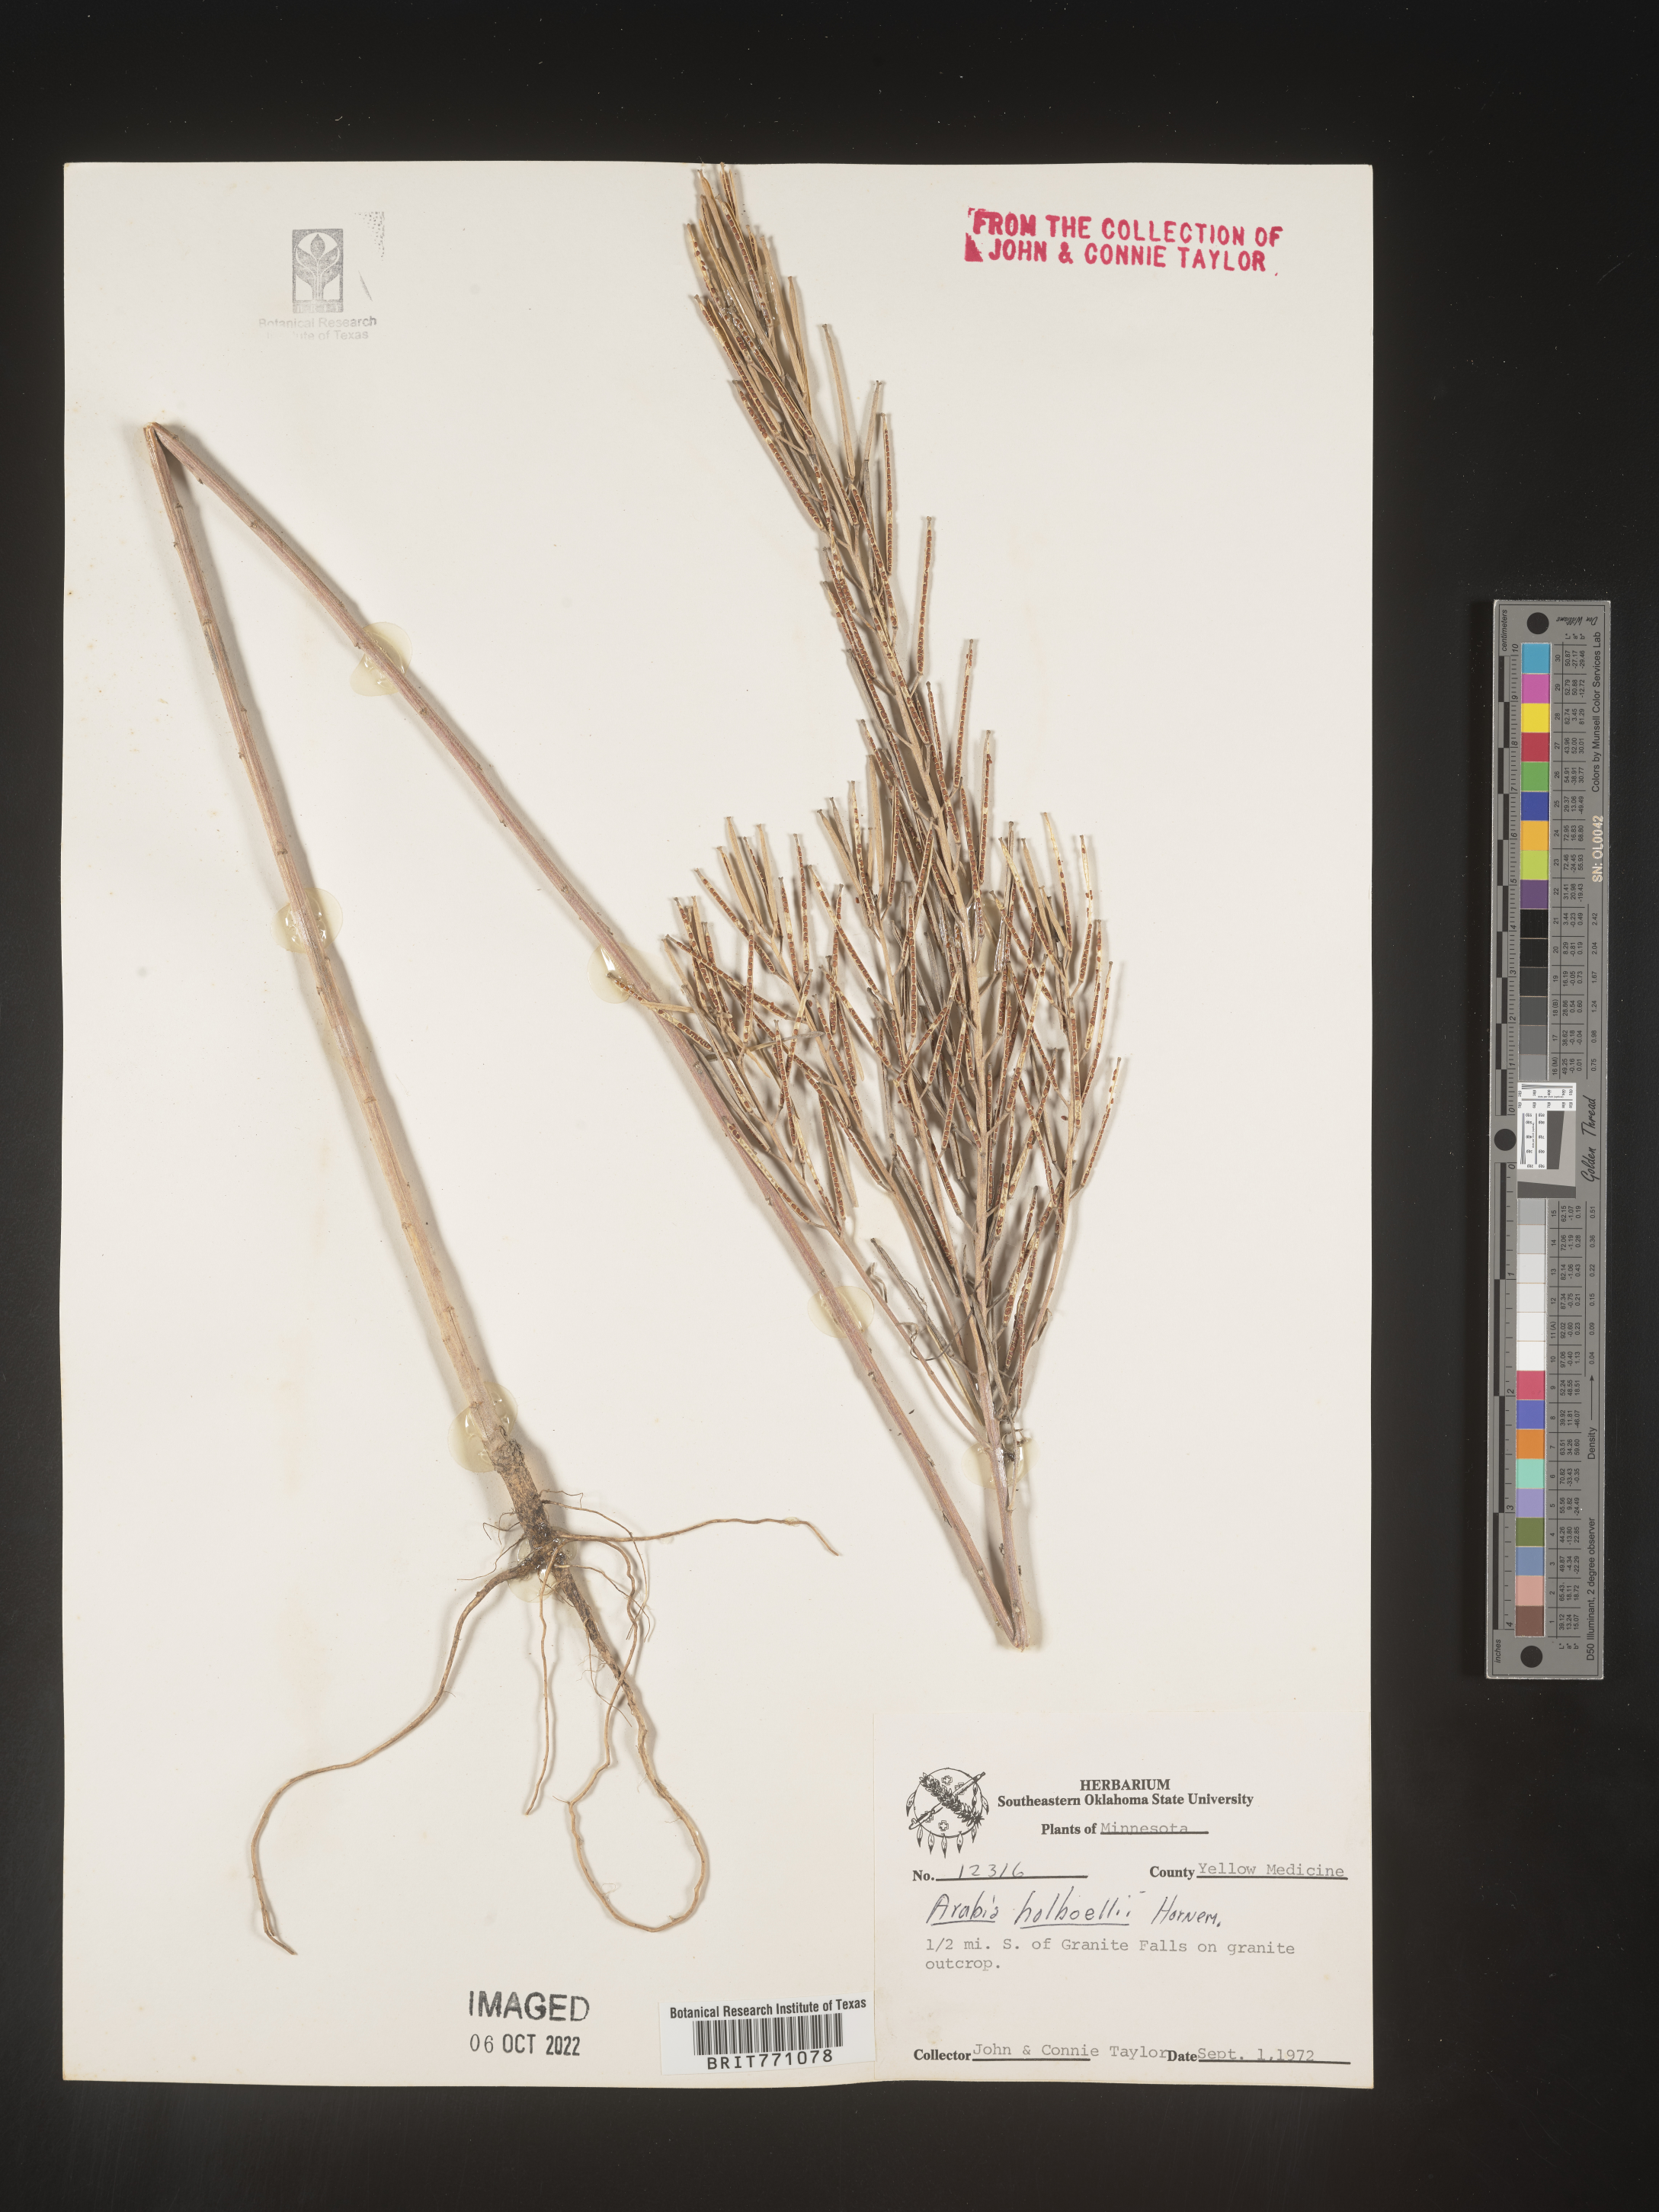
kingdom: Plantae
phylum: Tracheophyta
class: Magnoliopsida
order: Brassicales
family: Brassicaceae
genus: Boechera
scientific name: Boechera holboellii
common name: Holboell's rockcress
